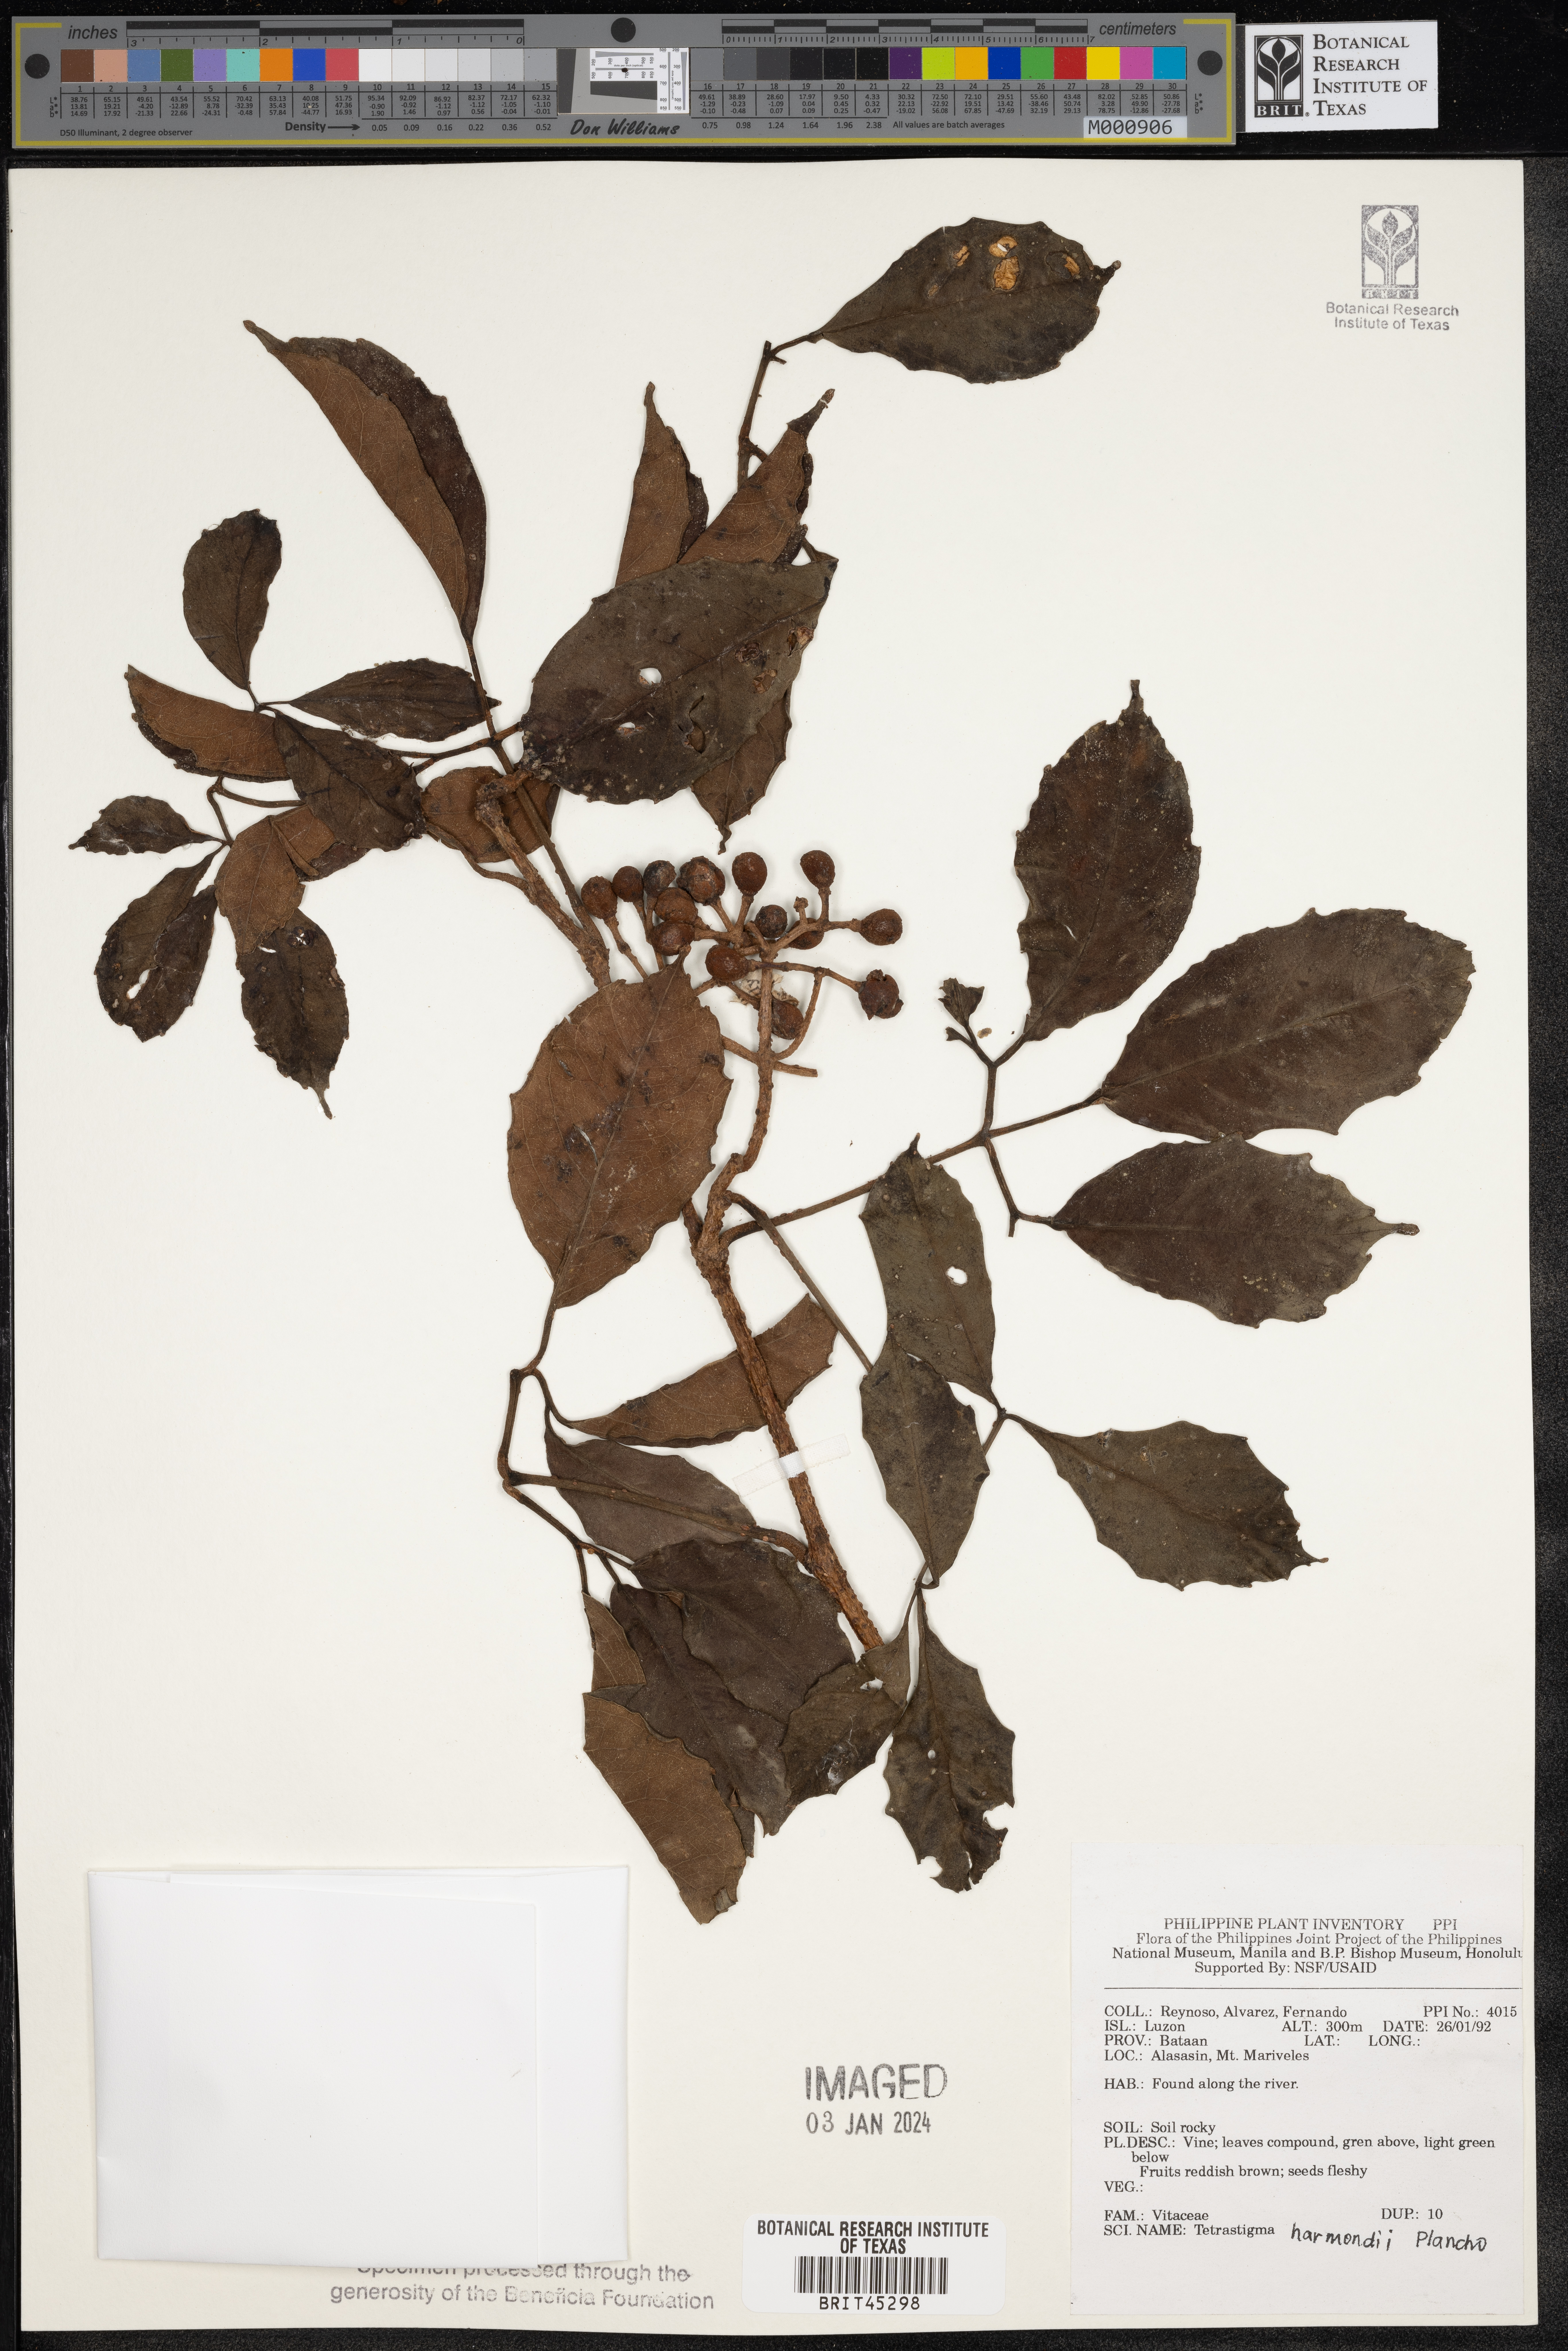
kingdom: Plantae
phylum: Tracheophyta
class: Magnoliopsida
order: Vitales
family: Vitaceae
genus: Tetrastigma
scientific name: Tetrastigma harmandii
